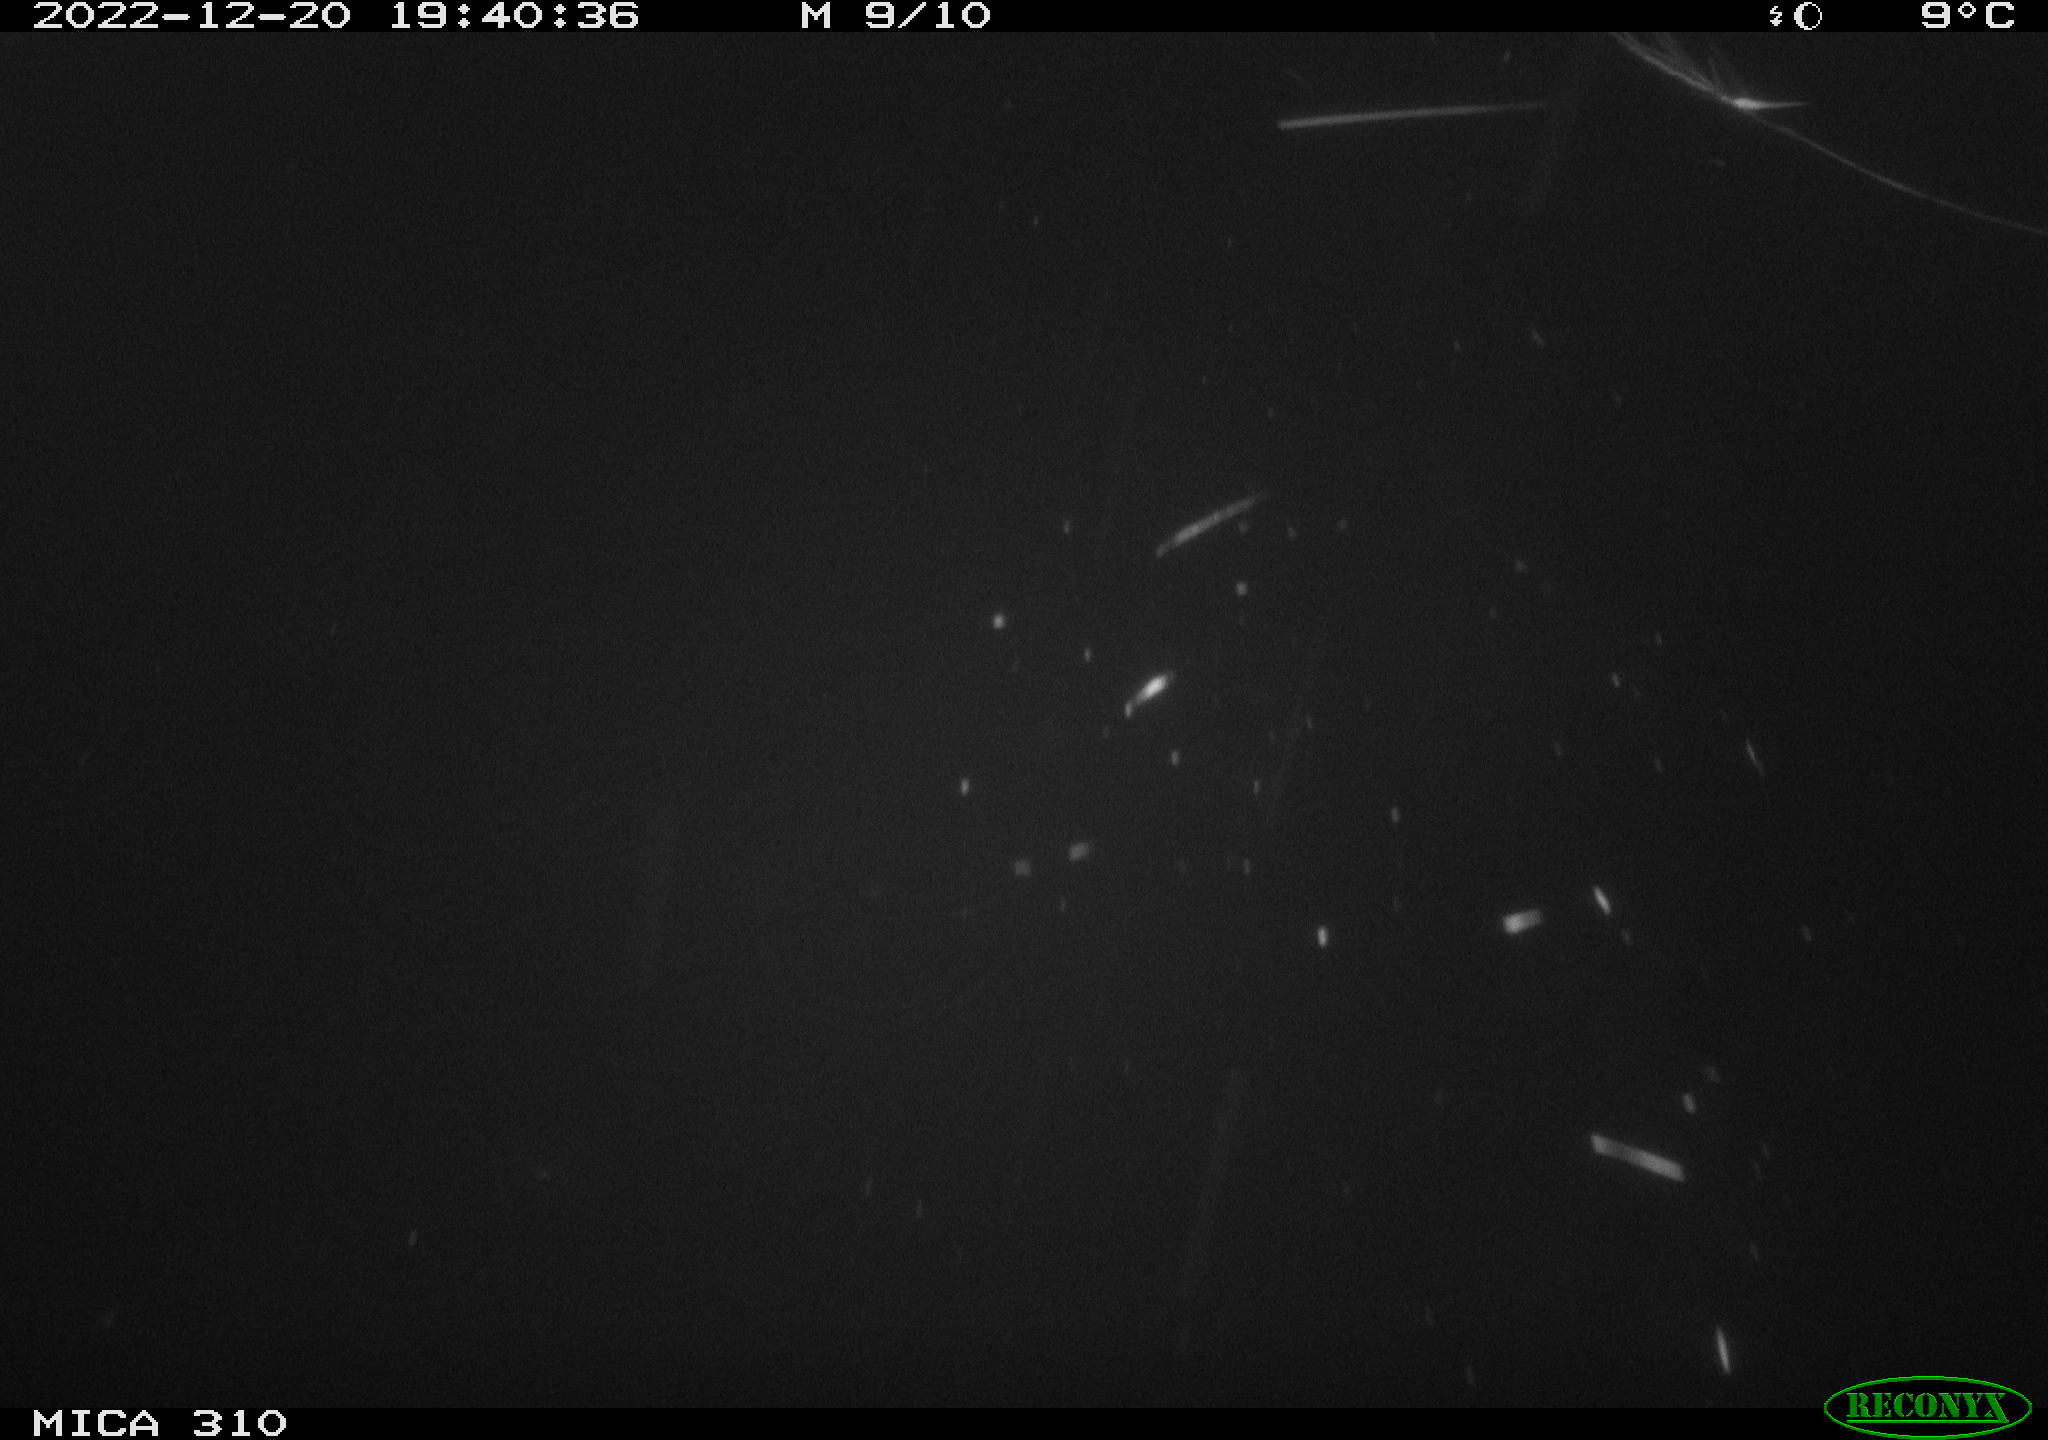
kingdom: Animalia
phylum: Chordata
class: Mammalia
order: Rodentia
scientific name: Rodentia
